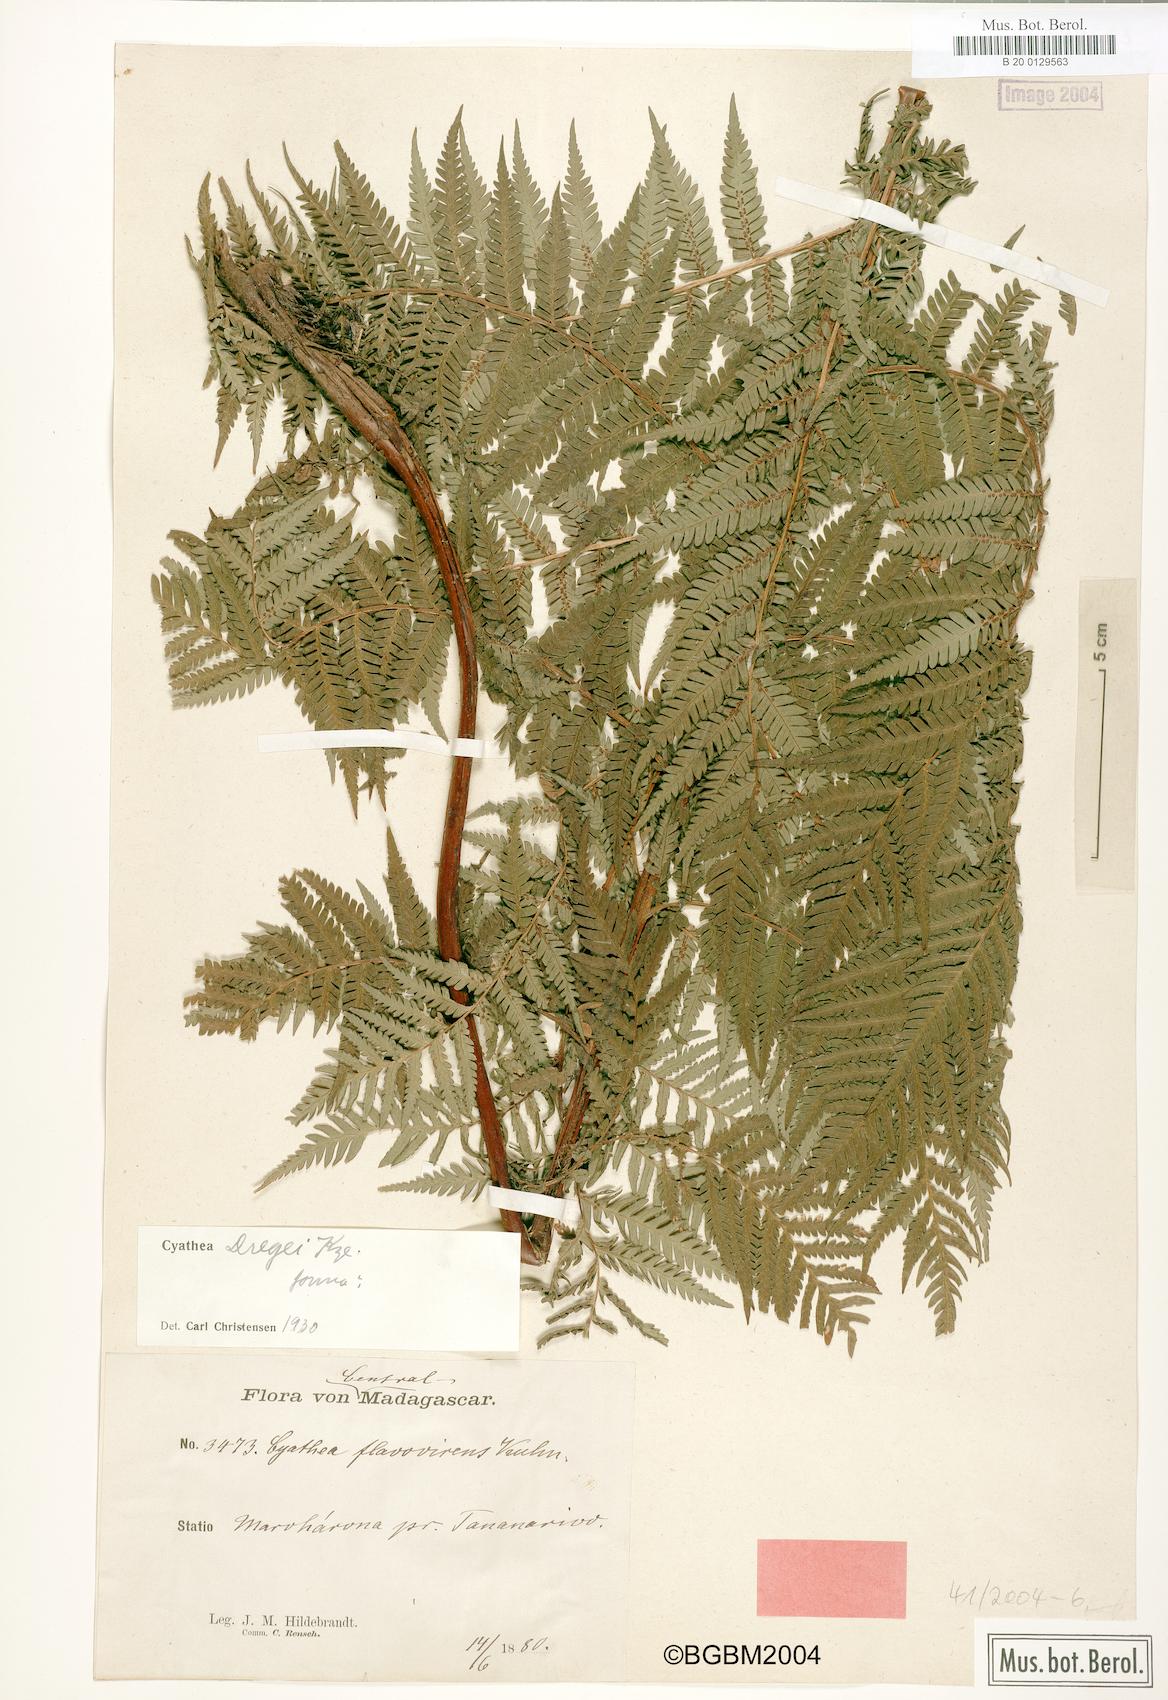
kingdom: Plantae
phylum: Tracheophyta
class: Polypodiopsida
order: Cyatheales
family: Cyatheaceae
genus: Alsophila
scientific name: Alsophila dregei
